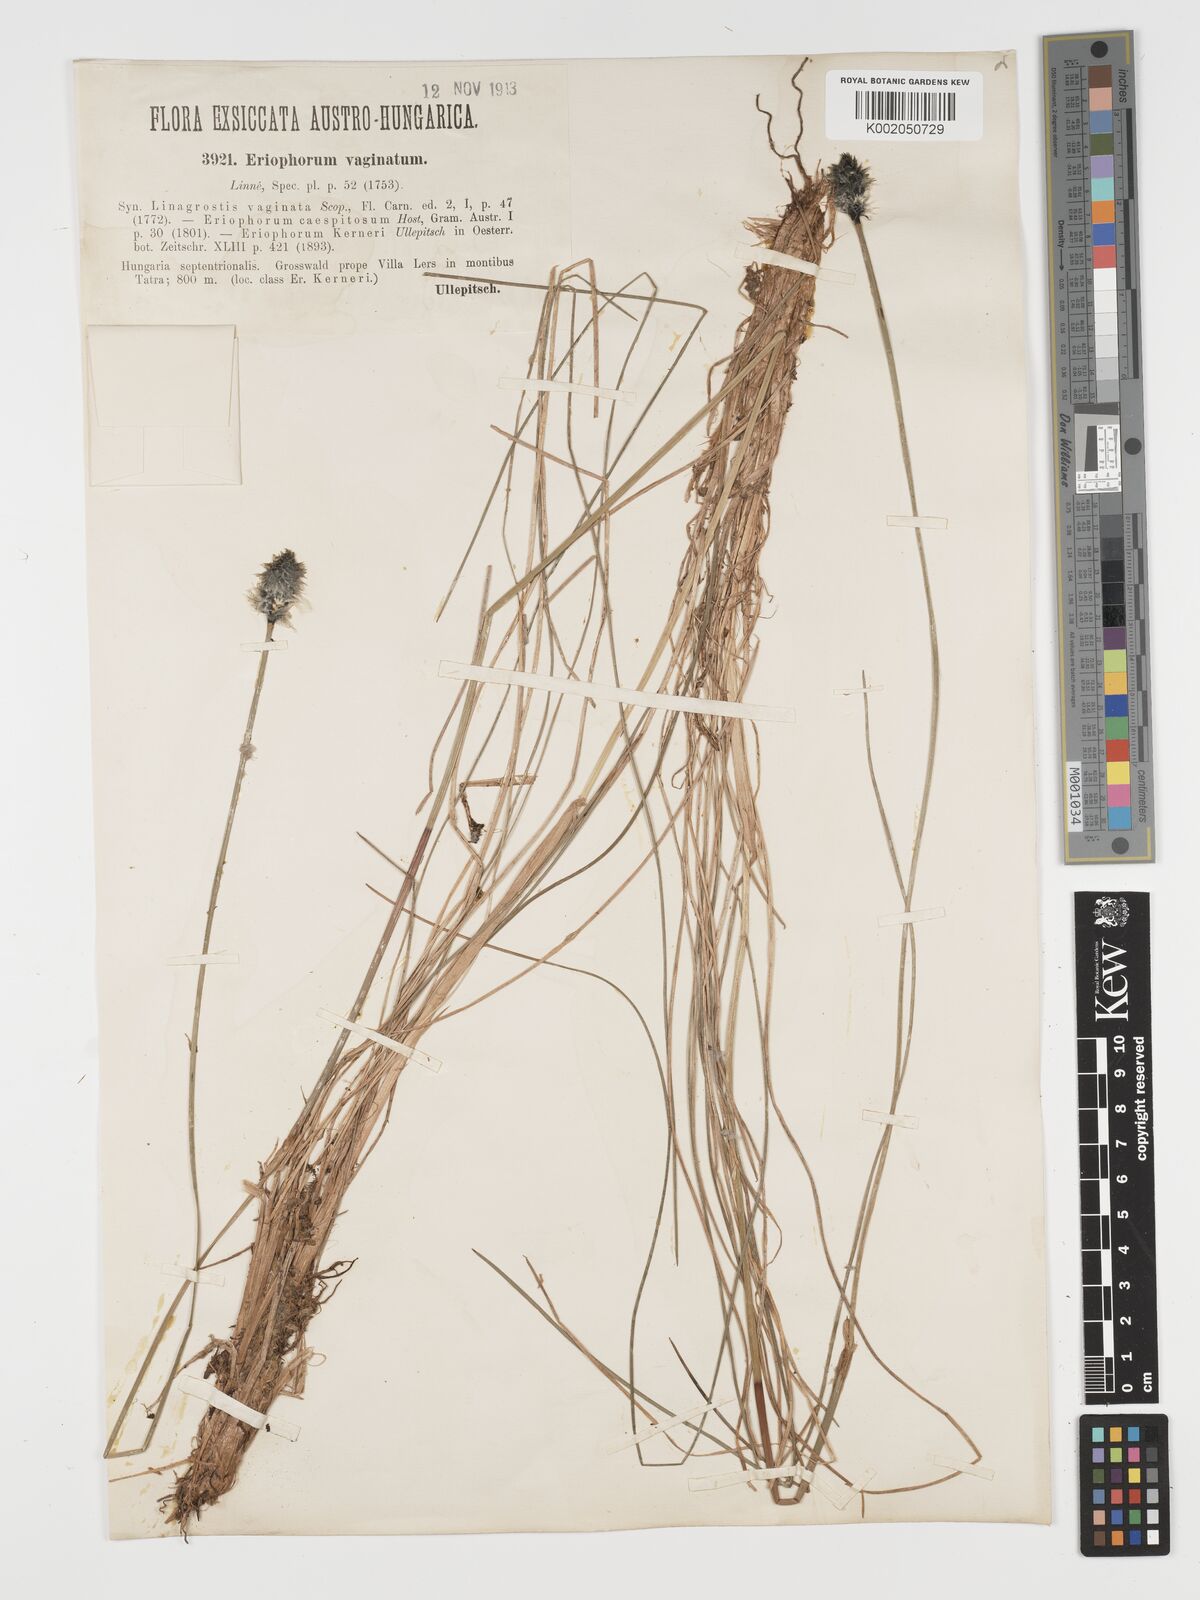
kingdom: Plantae
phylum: Tracheophyta
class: Liliopsida
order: Poales
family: Cyperaceae
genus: Eriophorum
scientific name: Eriophorum vaginatum
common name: Hare's-tail cottongrass
